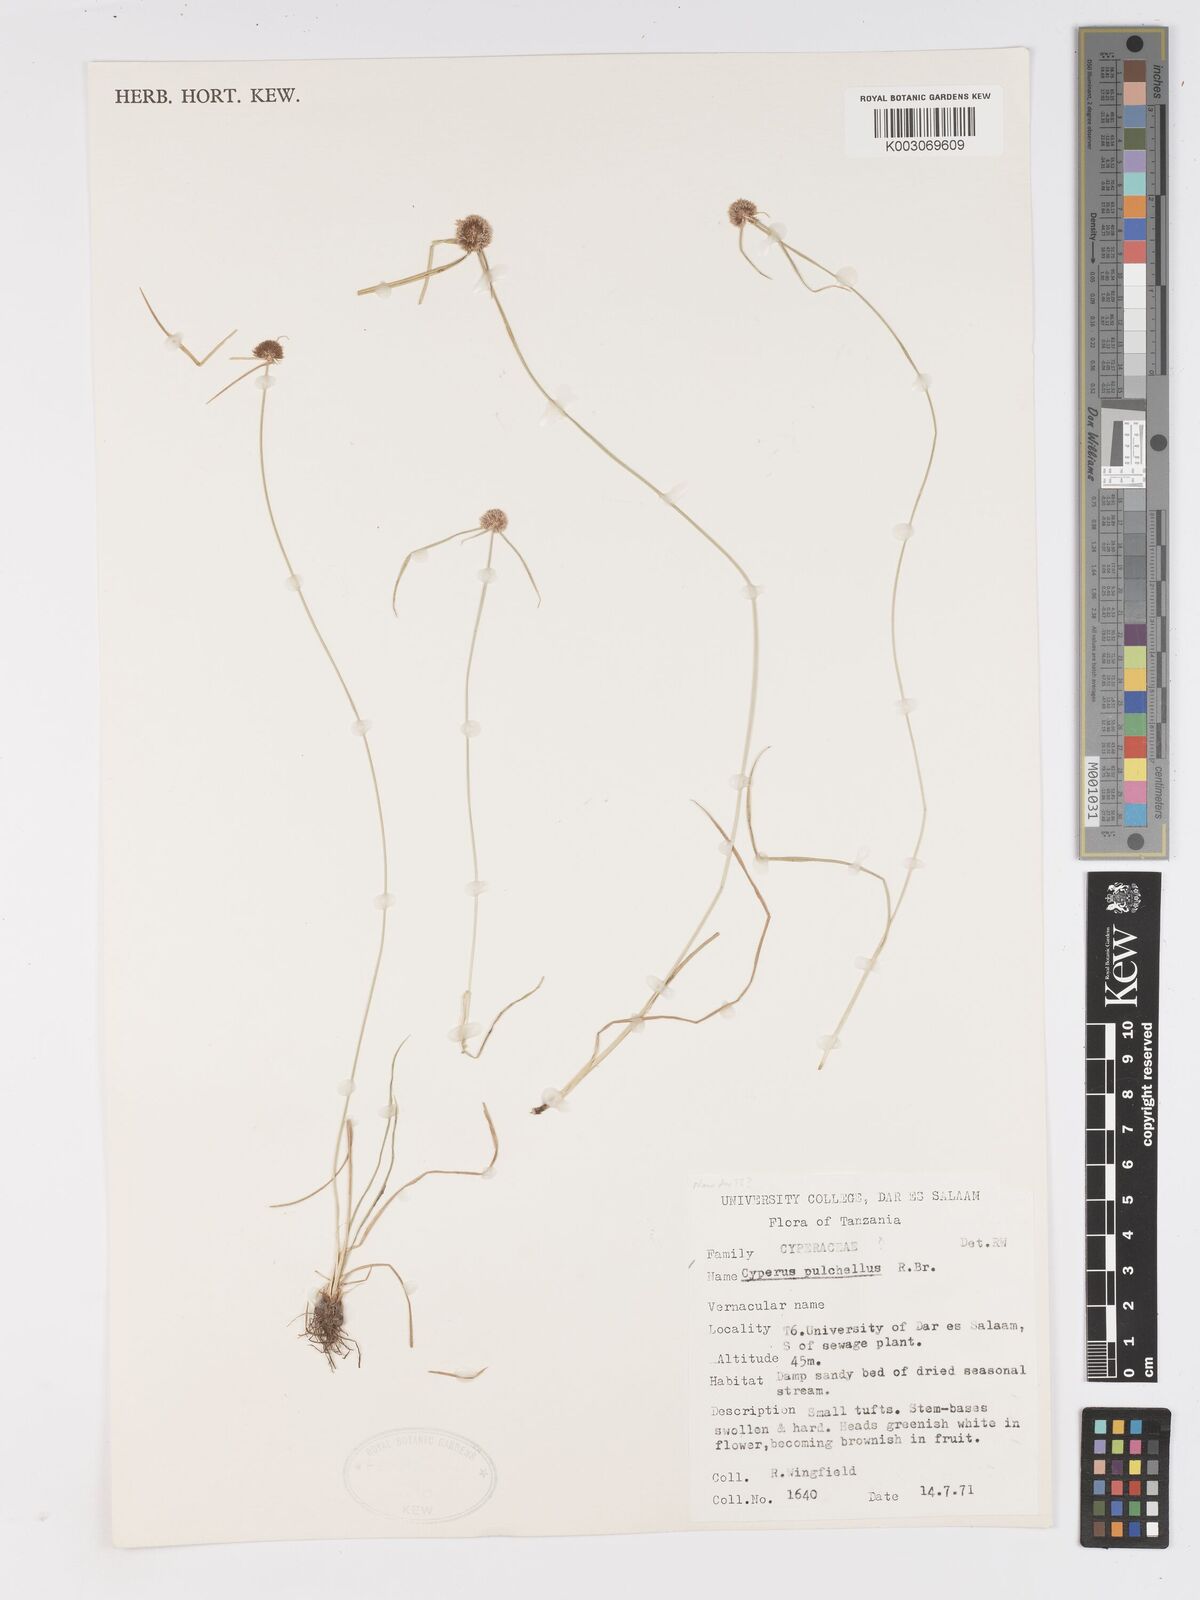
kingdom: Plantae
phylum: Tracheophyta
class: Liliopsida
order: Poales
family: Cyperaceae
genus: Cyperus
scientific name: Cyperus pulchellus
